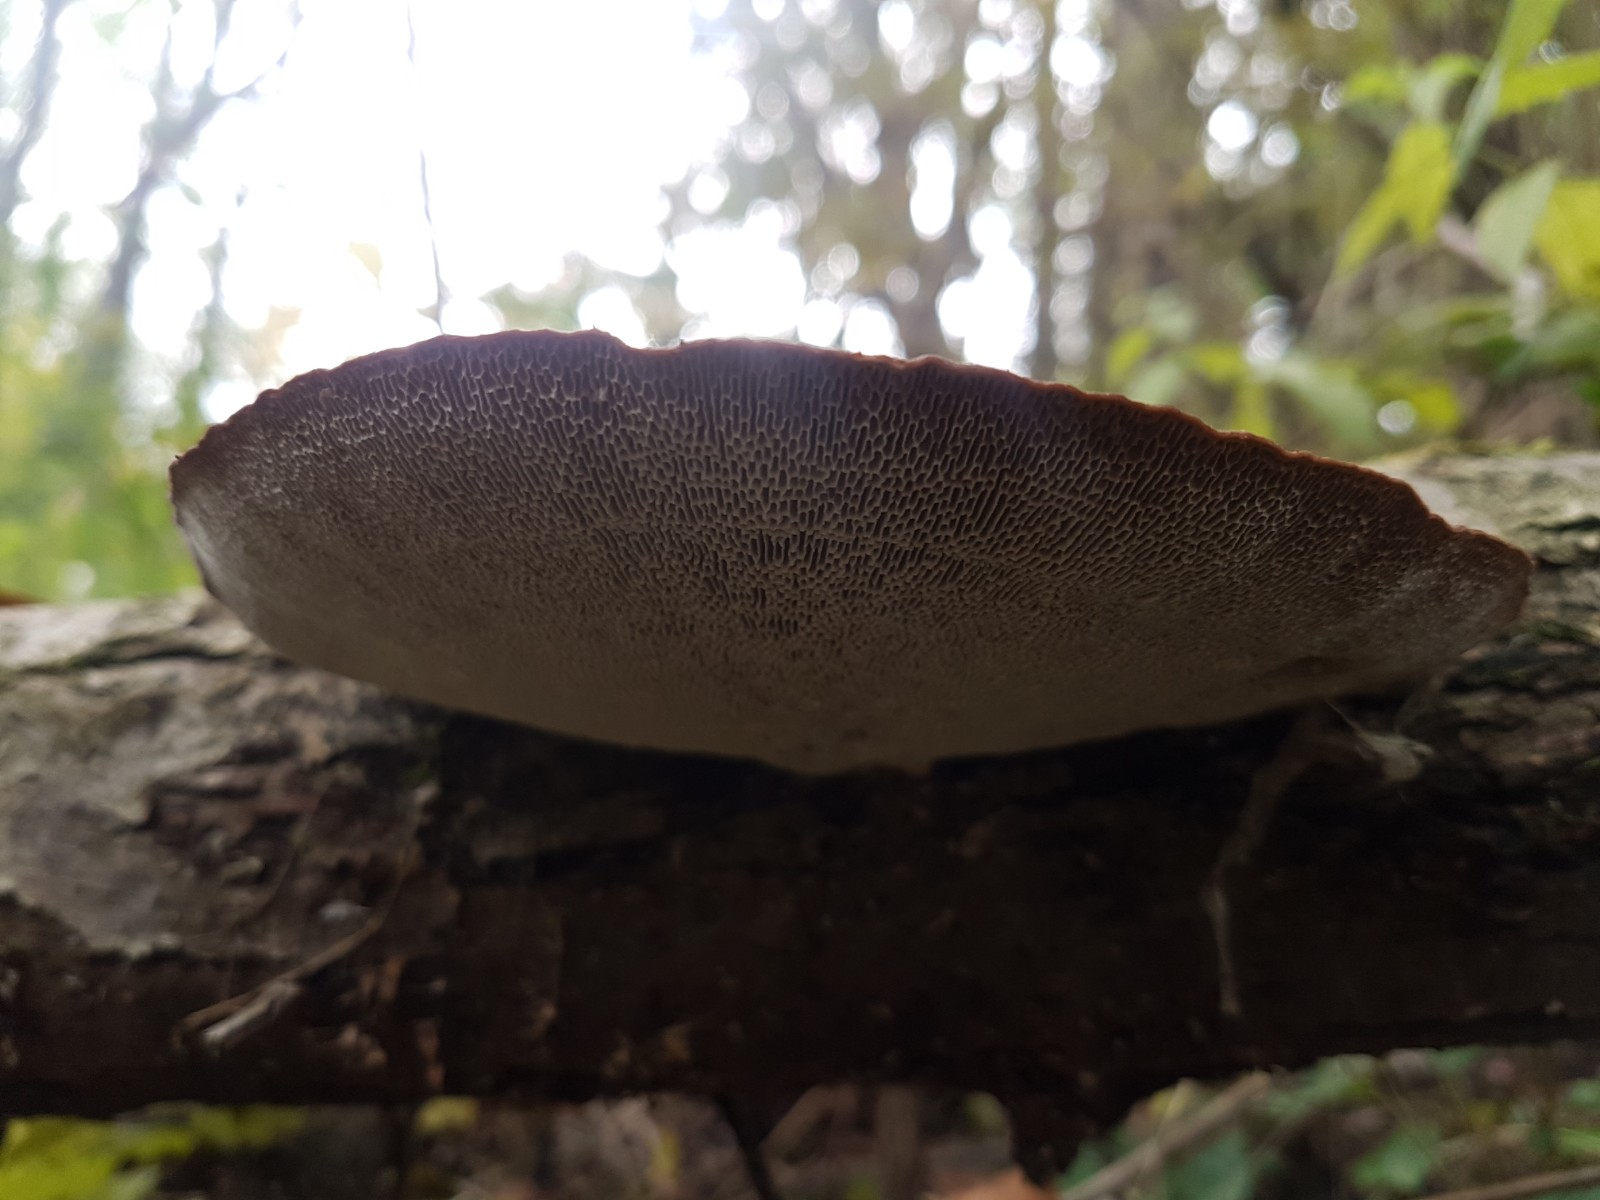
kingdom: Fungi
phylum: Basidiomycota
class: Agaricomycetes
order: Polyporales
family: Polyporaceae
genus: Daedaleopsis
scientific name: Daedaleopsis confragosa
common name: rødmende læderporesvamp
